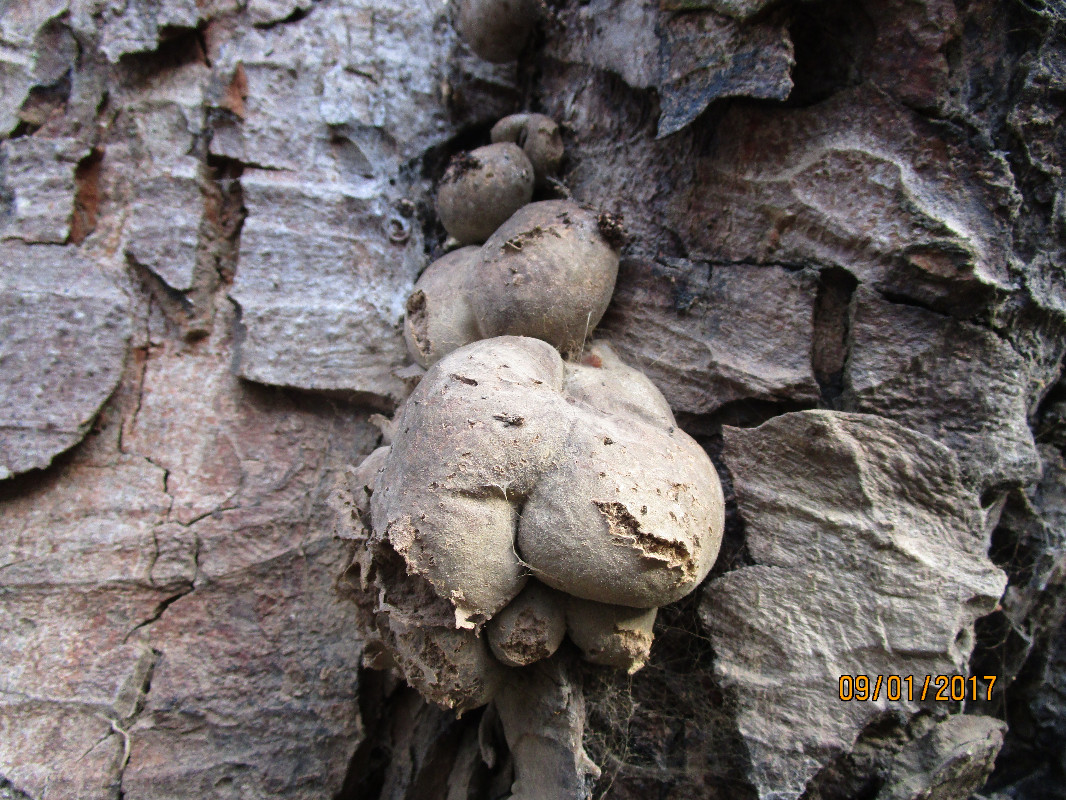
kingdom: Protozoa
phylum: Mycetozoa
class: Myxomycetes
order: Cribrariales
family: Tubiferaceae
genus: Lycogala
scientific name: Lycogala flavofuscum
